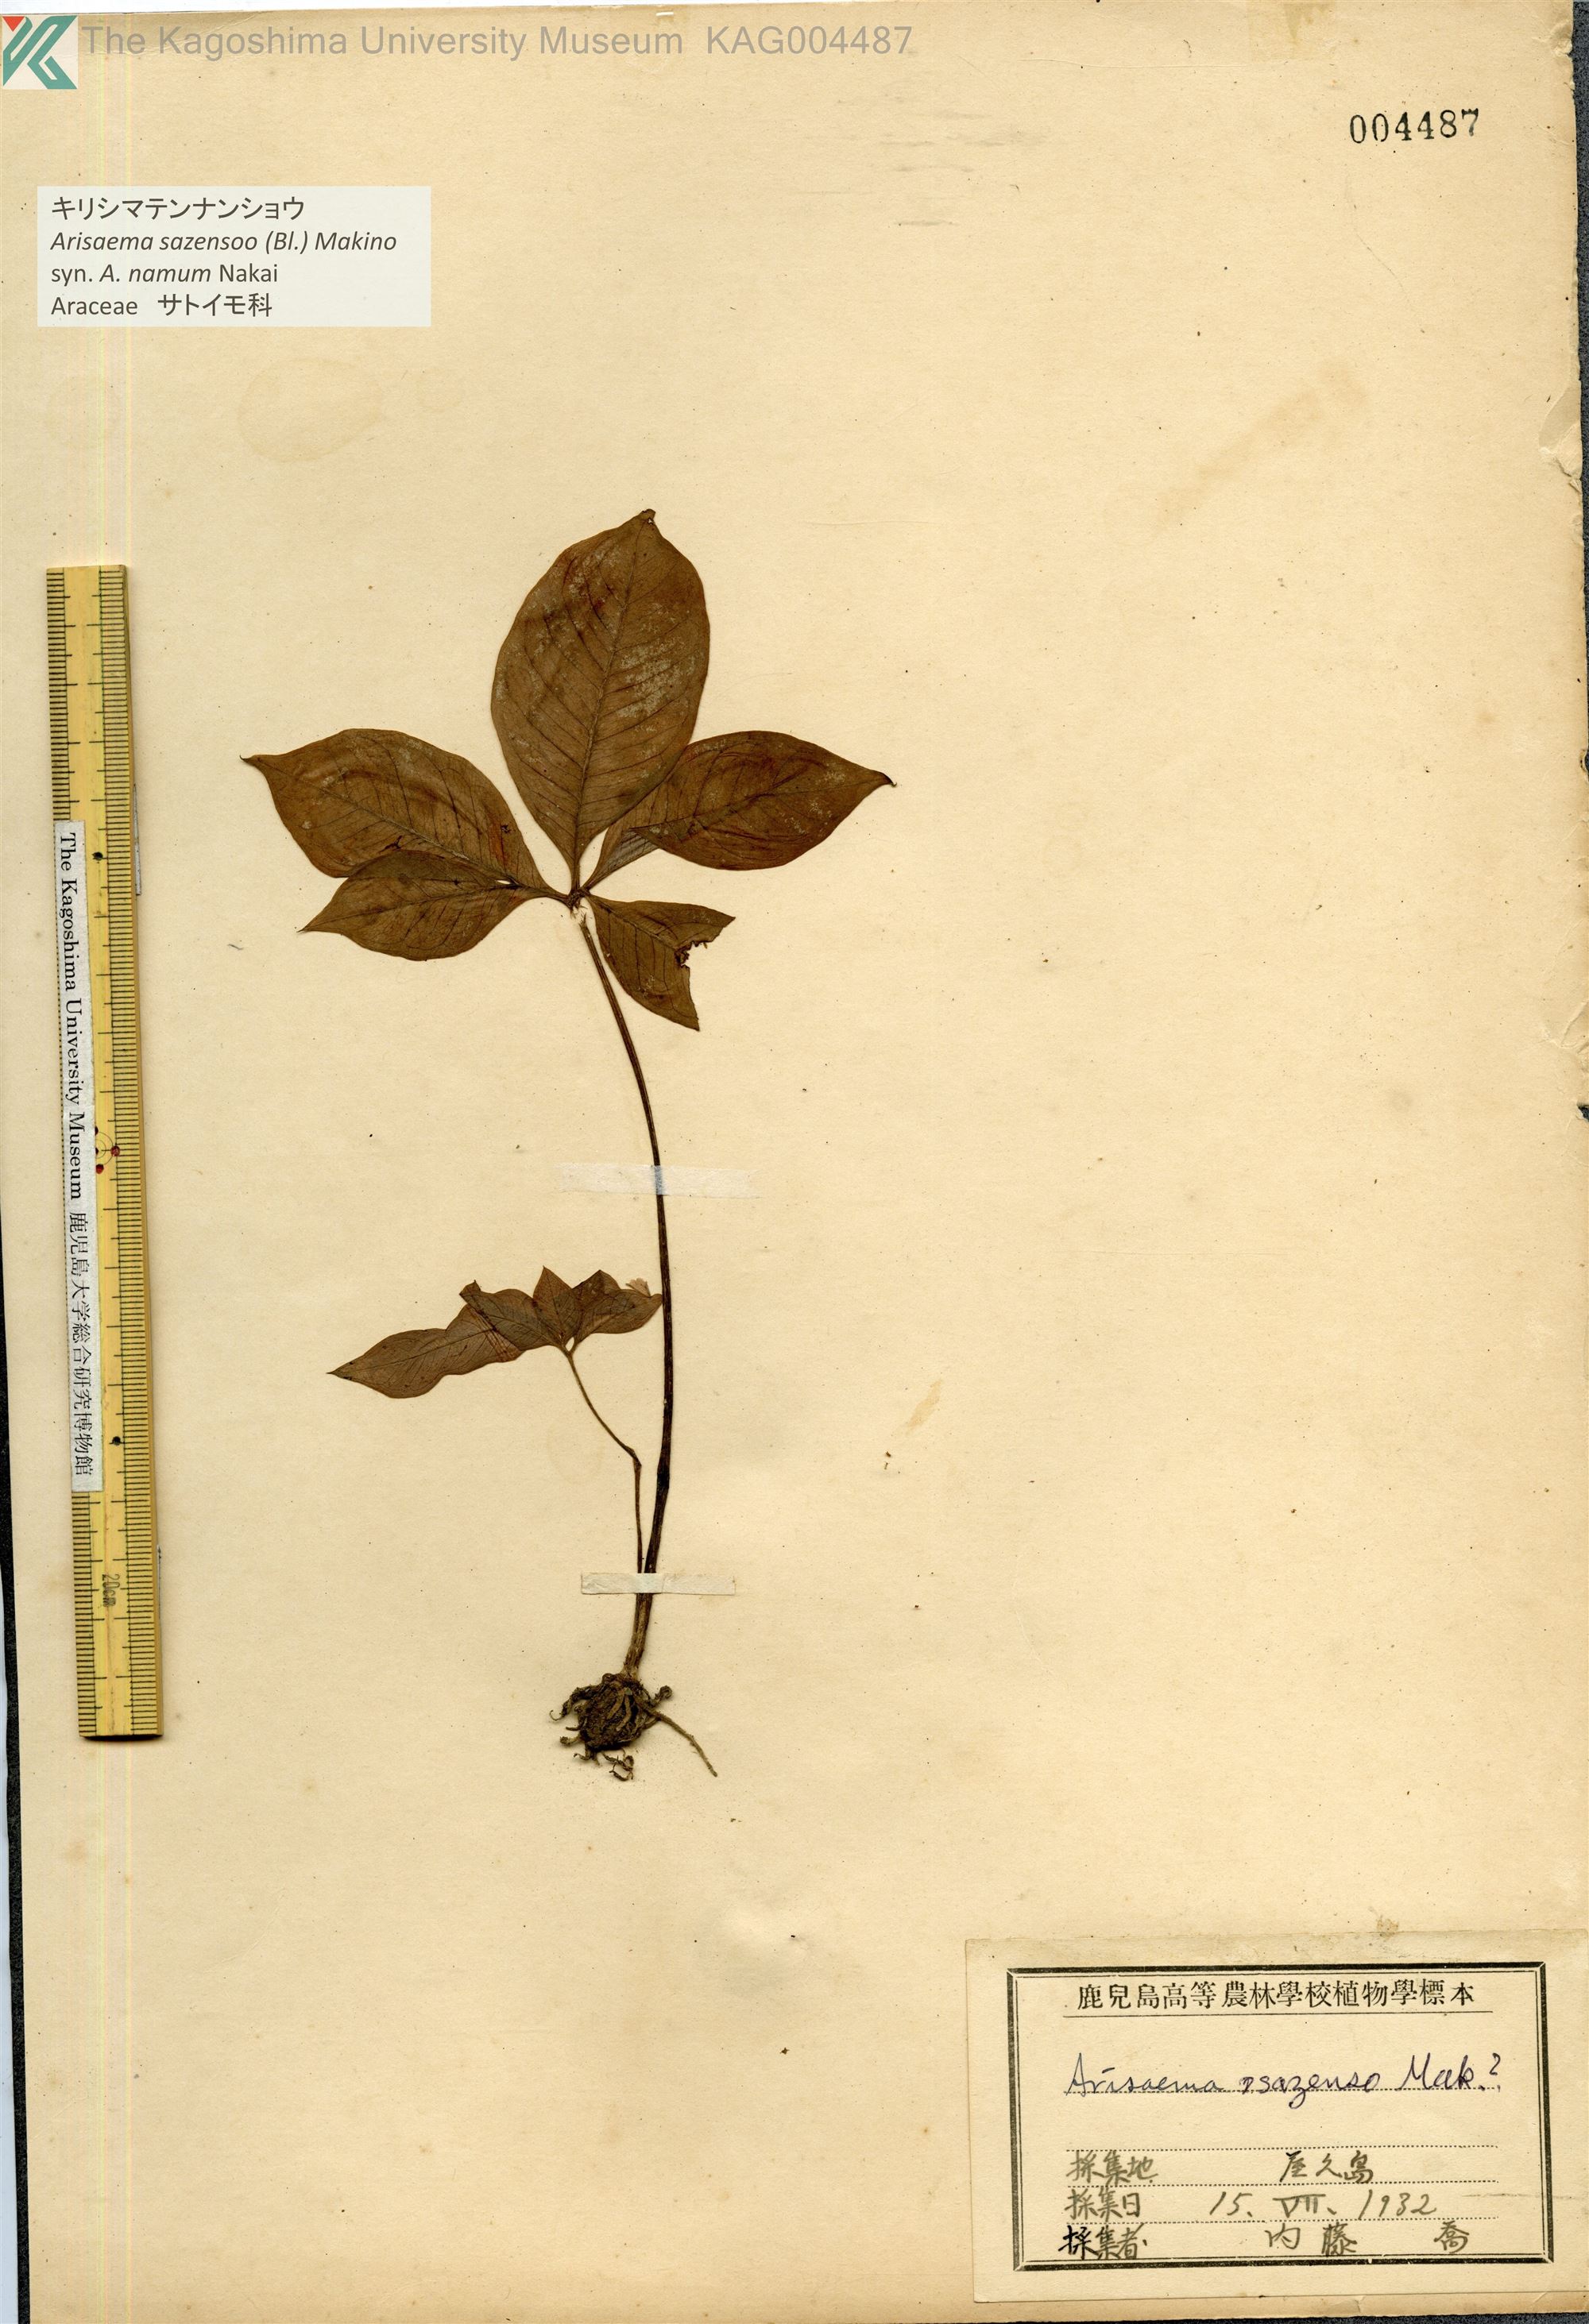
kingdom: Plantae
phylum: Tracheophyta
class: Liliopsida
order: Alismatales
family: Araceae
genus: Arisaema
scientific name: Arisaema sazensoo
